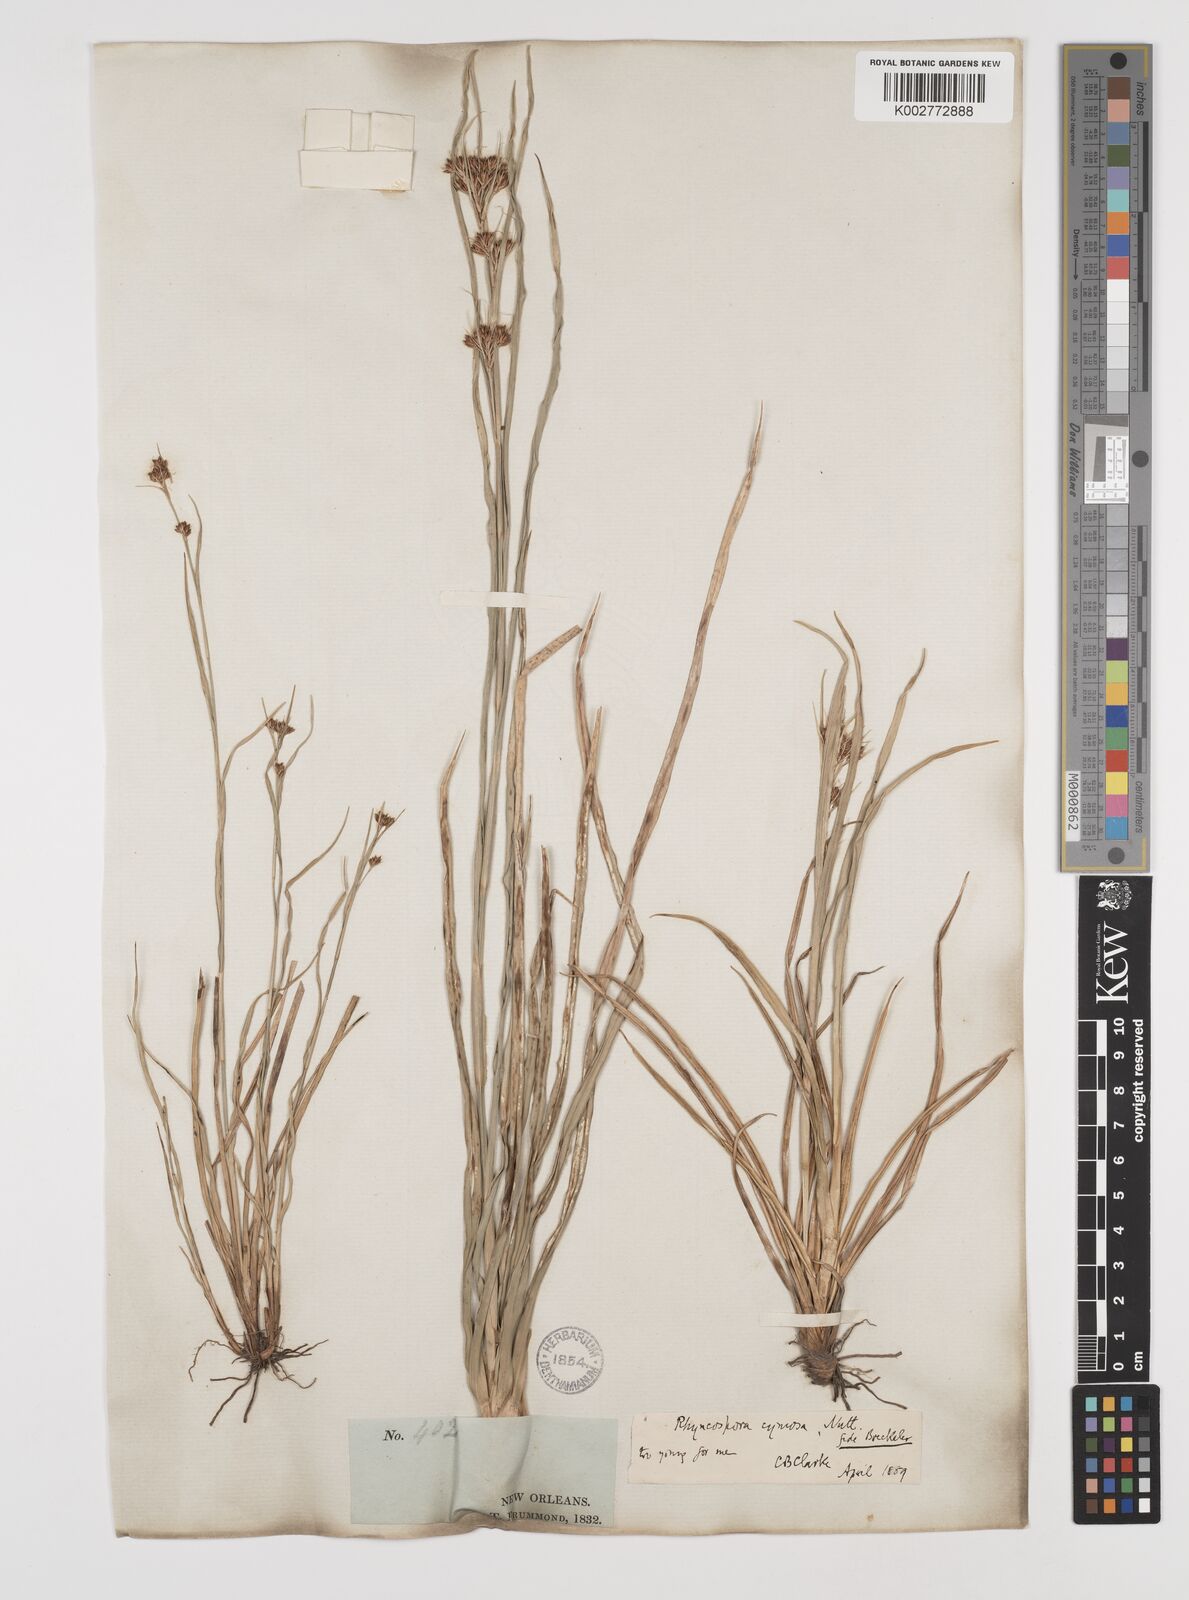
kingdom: Plantae
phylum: Tracheophyta
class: Liliopsida
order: Poales
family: Cyperaceae
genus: Scirpus
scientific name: Scirpus polyphyllus
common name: Leafy bulrush
